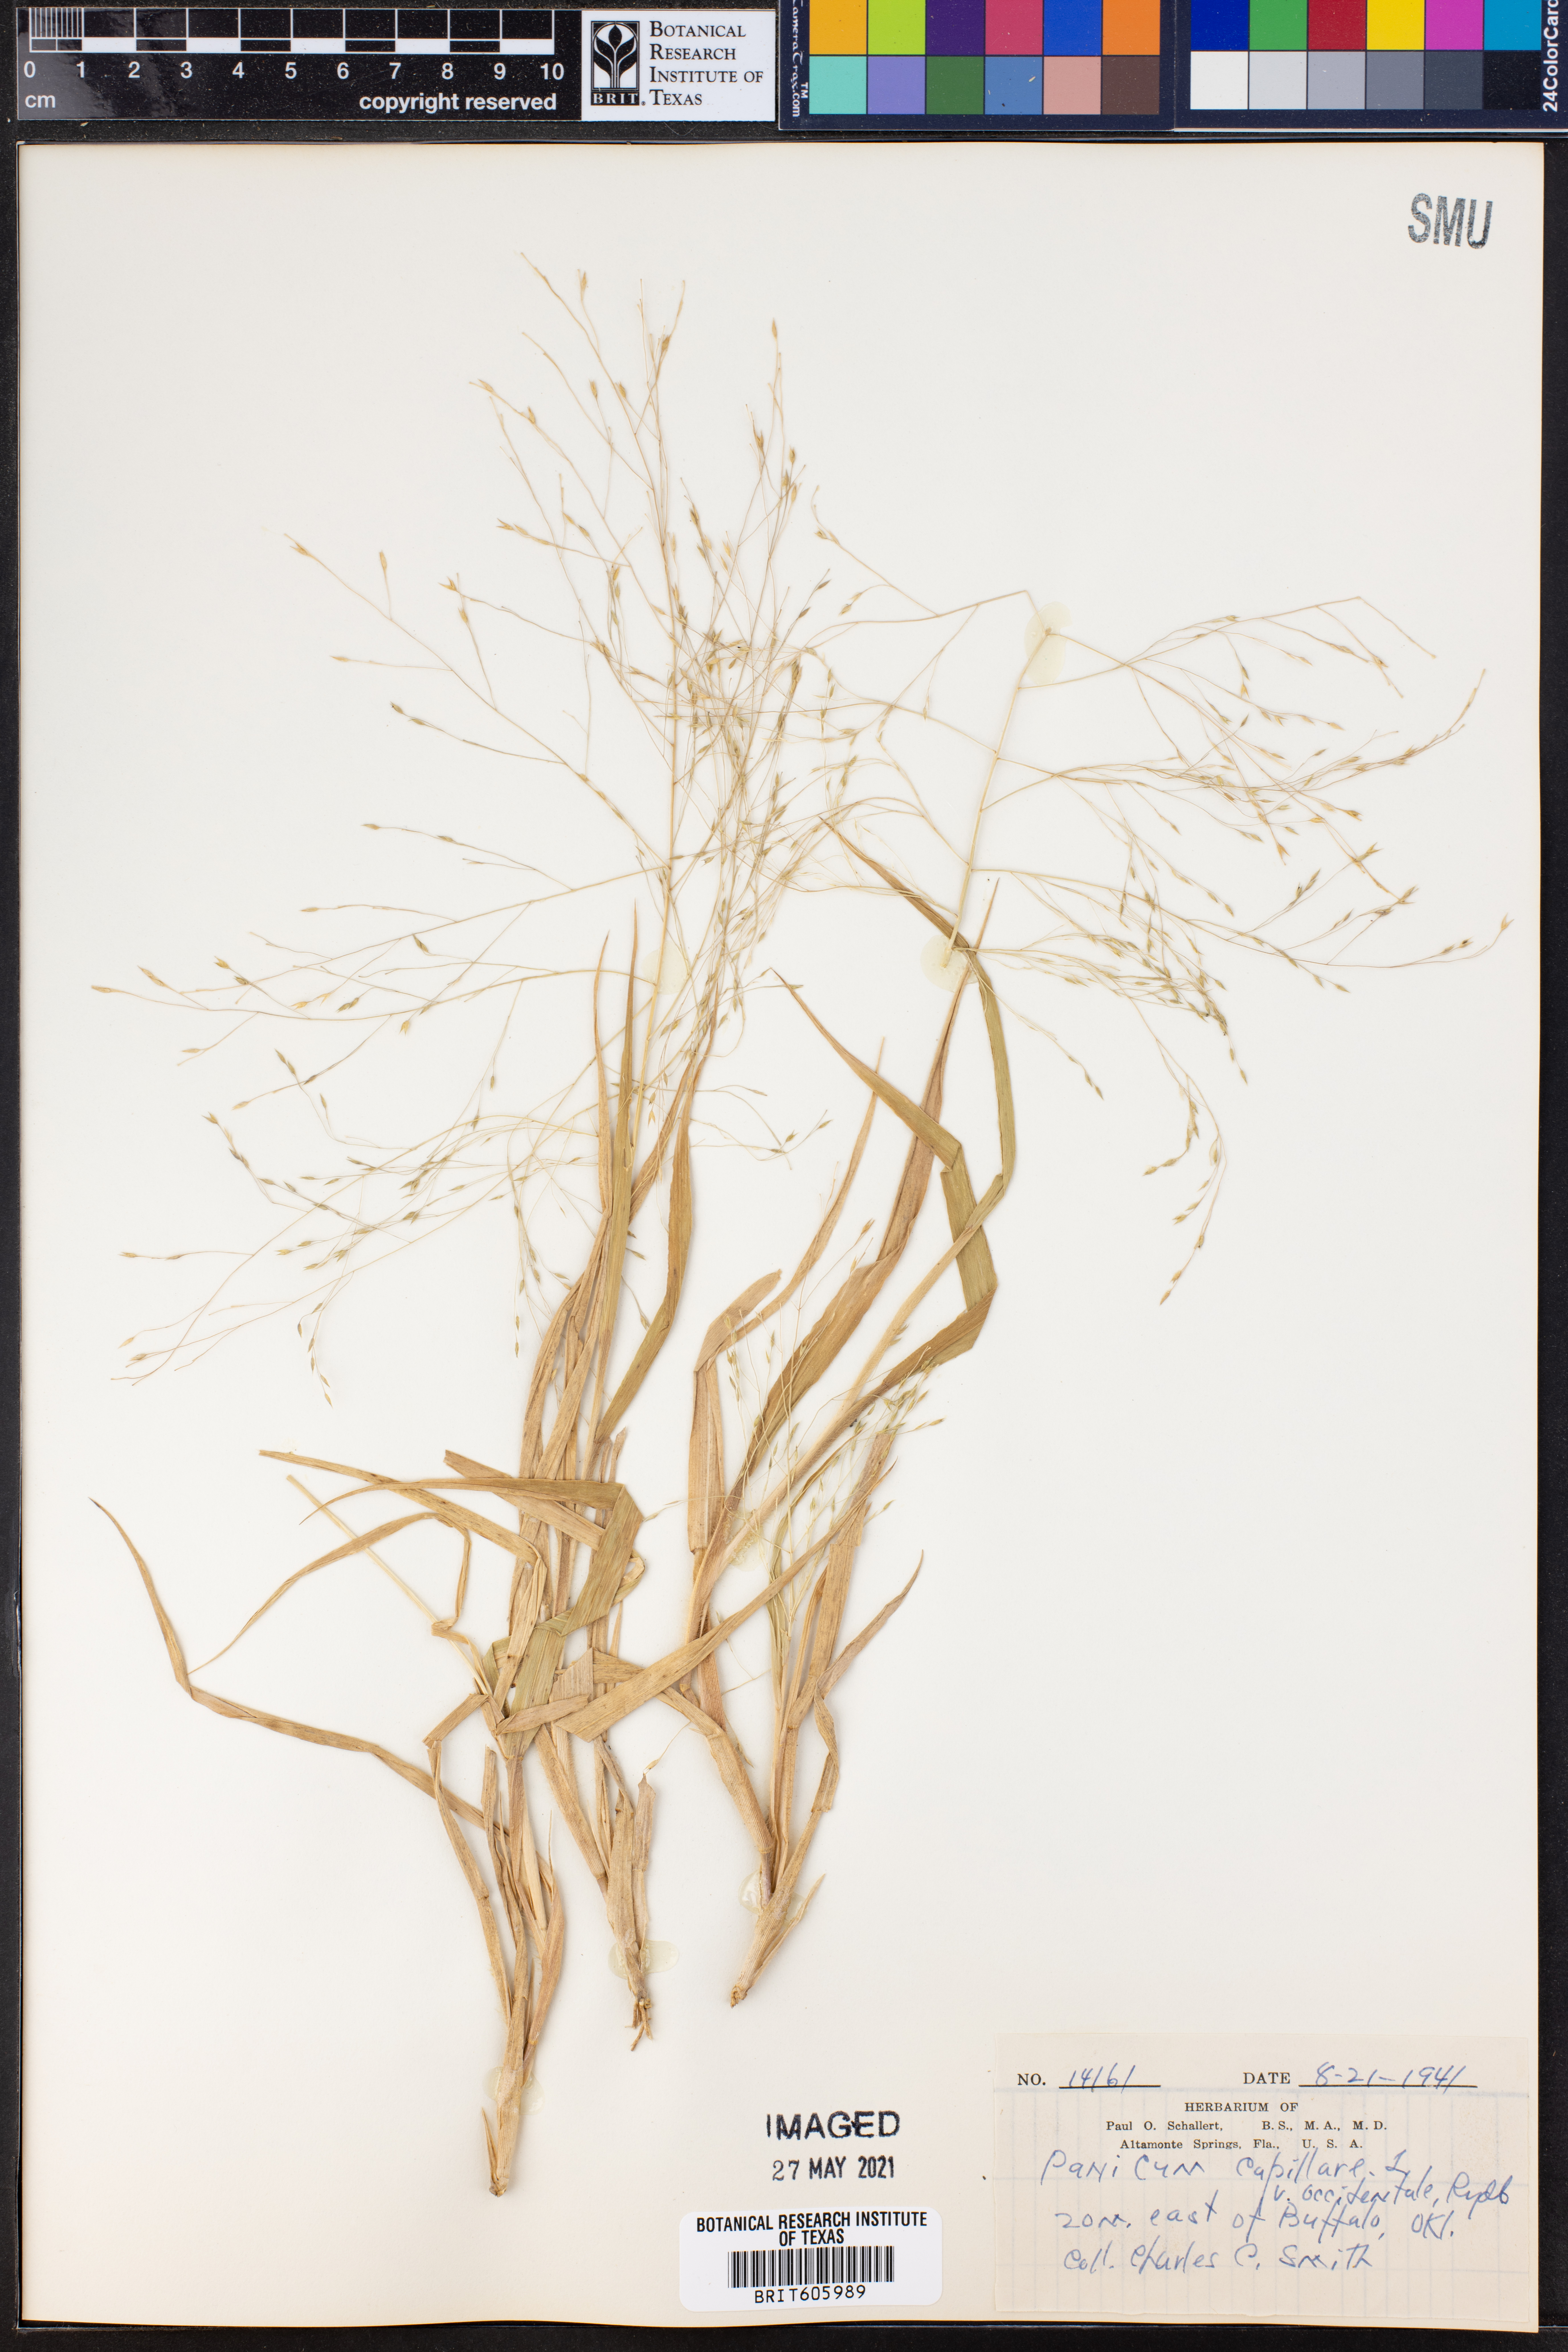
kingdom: Plantae
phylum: Tracheophyta
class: Liliopsida
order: Poales
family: Poaceae
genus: Panicum
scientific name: Panicum capillare
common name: Witch-grass
